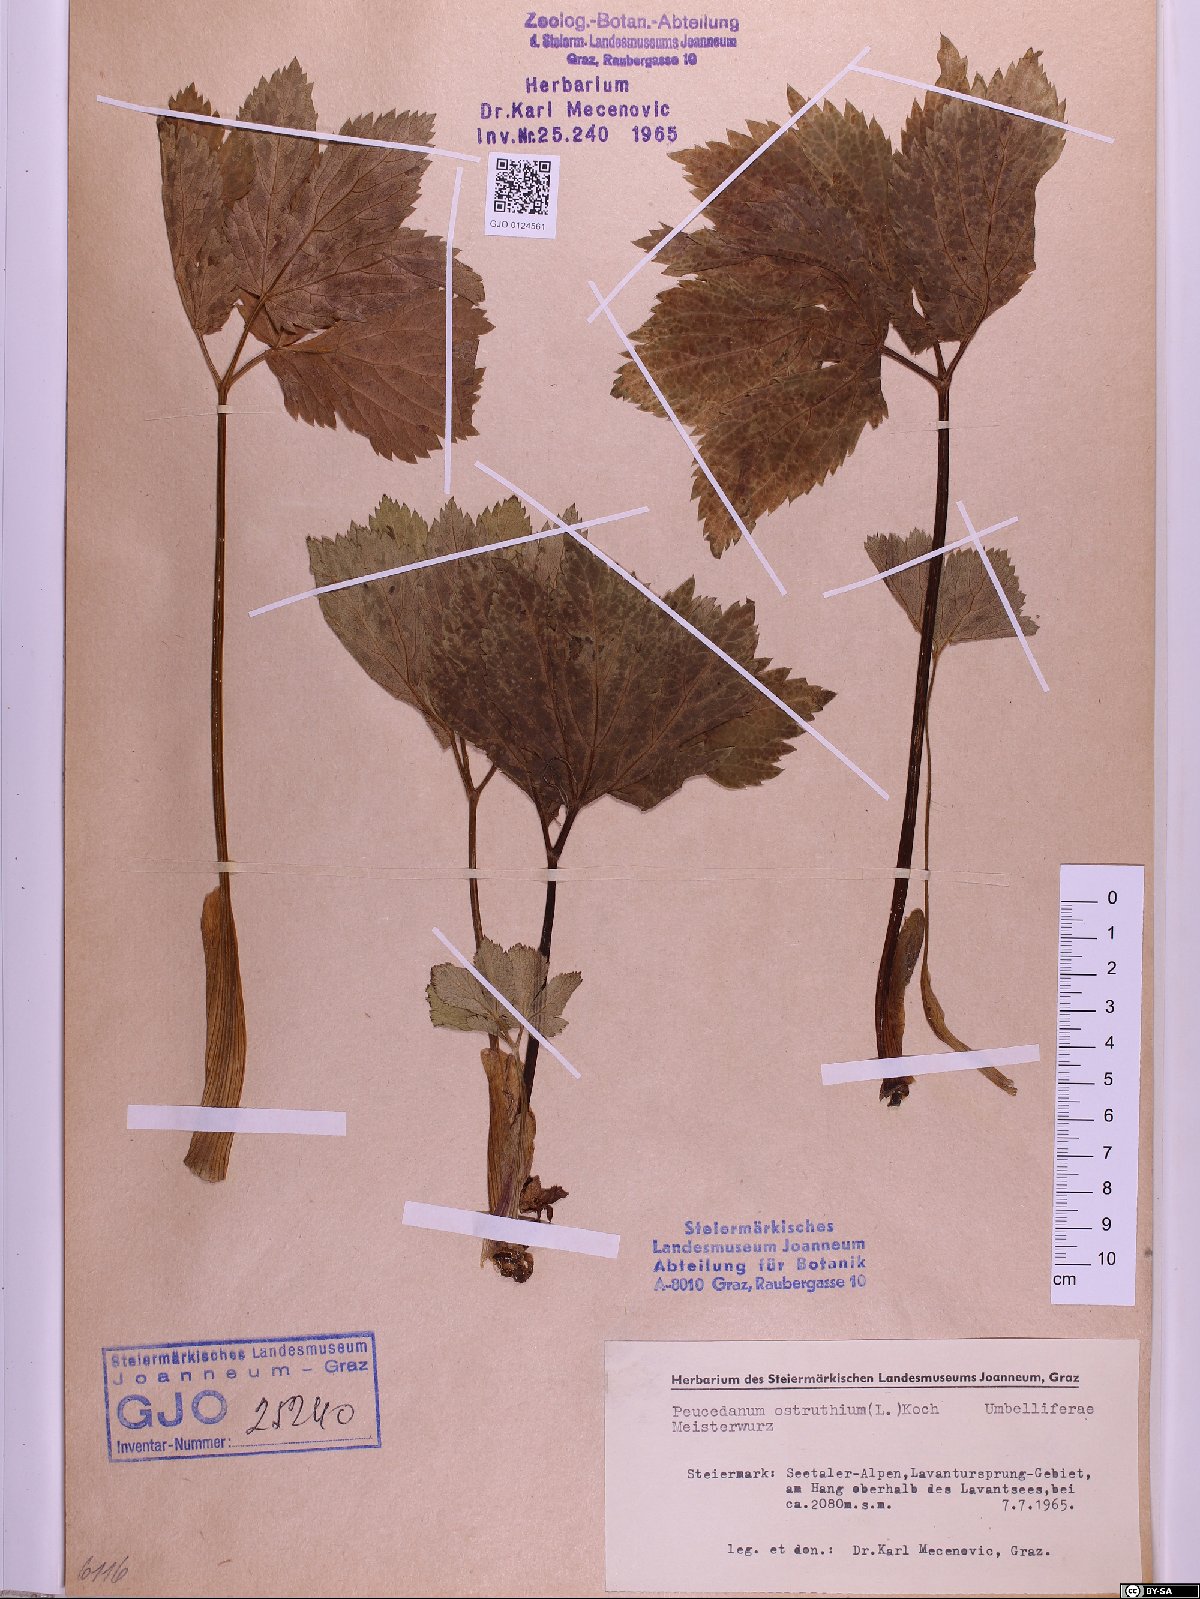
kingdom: Plantae
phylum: Tracheophyta
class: Magnoliopsida
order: Apiales
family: Apiaceae
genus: Imperatoria
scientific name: Imperatoria ostruthium
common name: Masterwort
